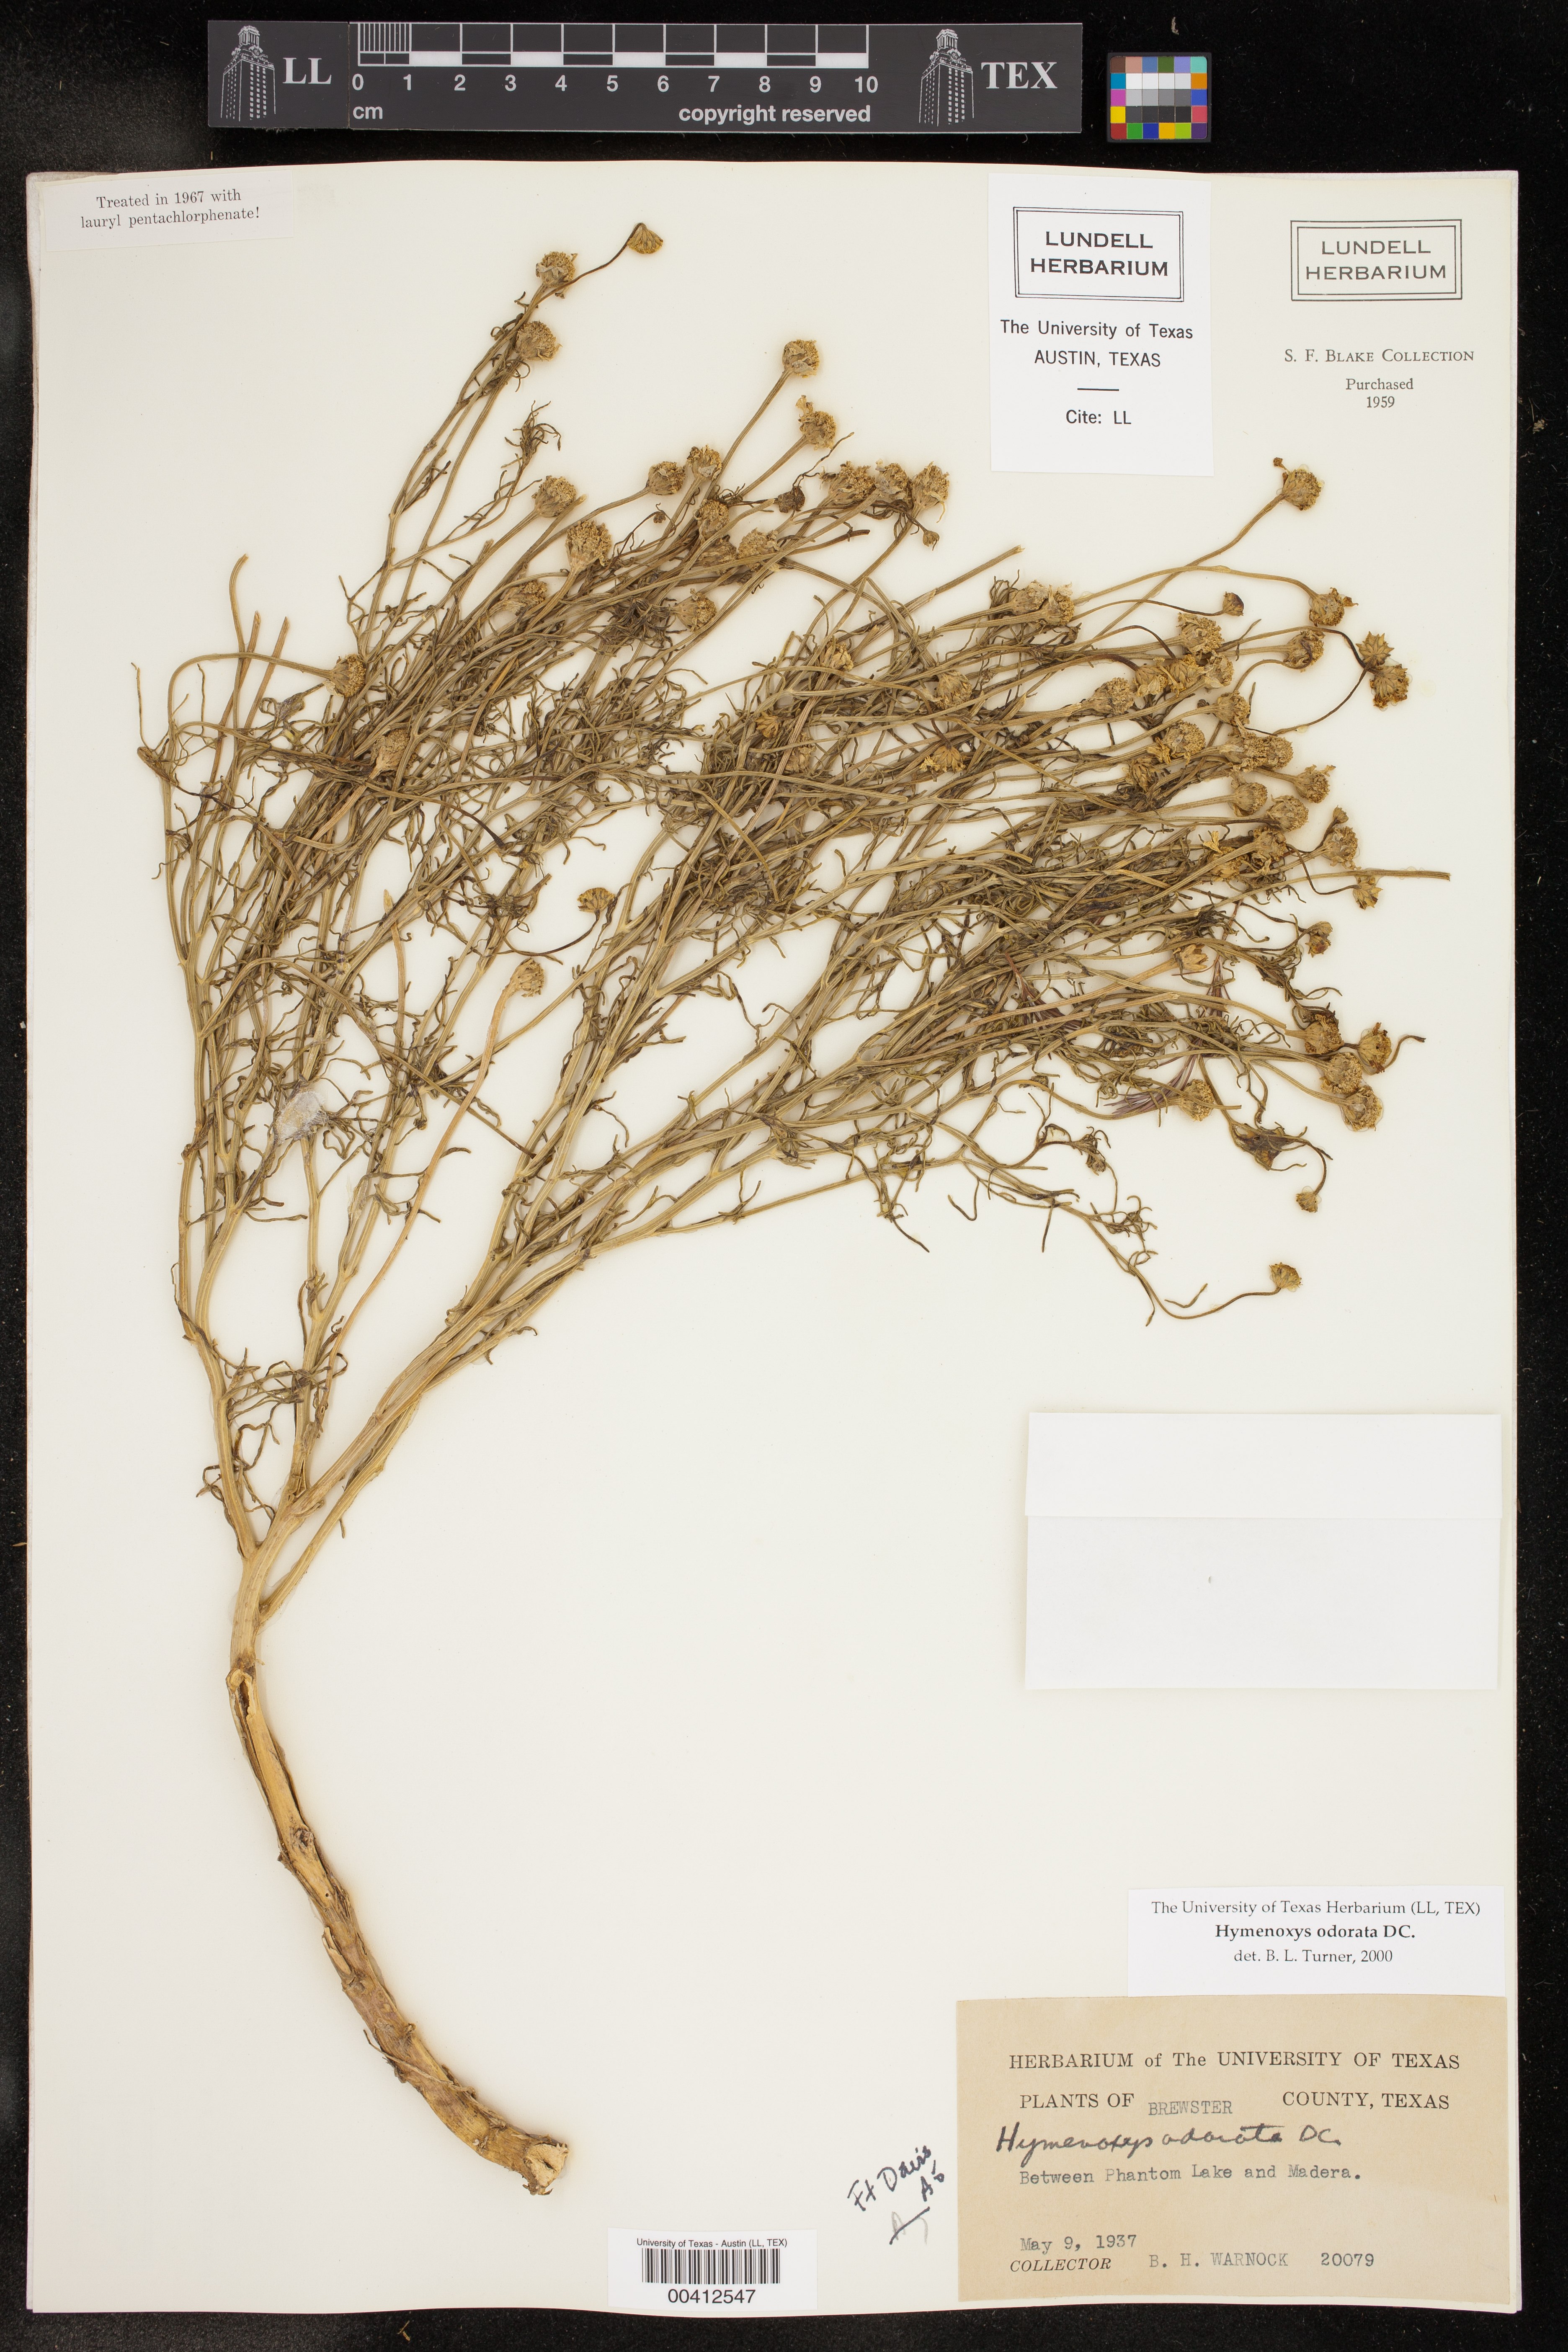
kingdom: Plantae
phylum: Tracheophyta
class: Magnoliopsida
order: Asterales
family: Asteraceae
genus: Hymenoxys
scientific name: Hymenoxys odorata
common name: Bitter rubberweed
